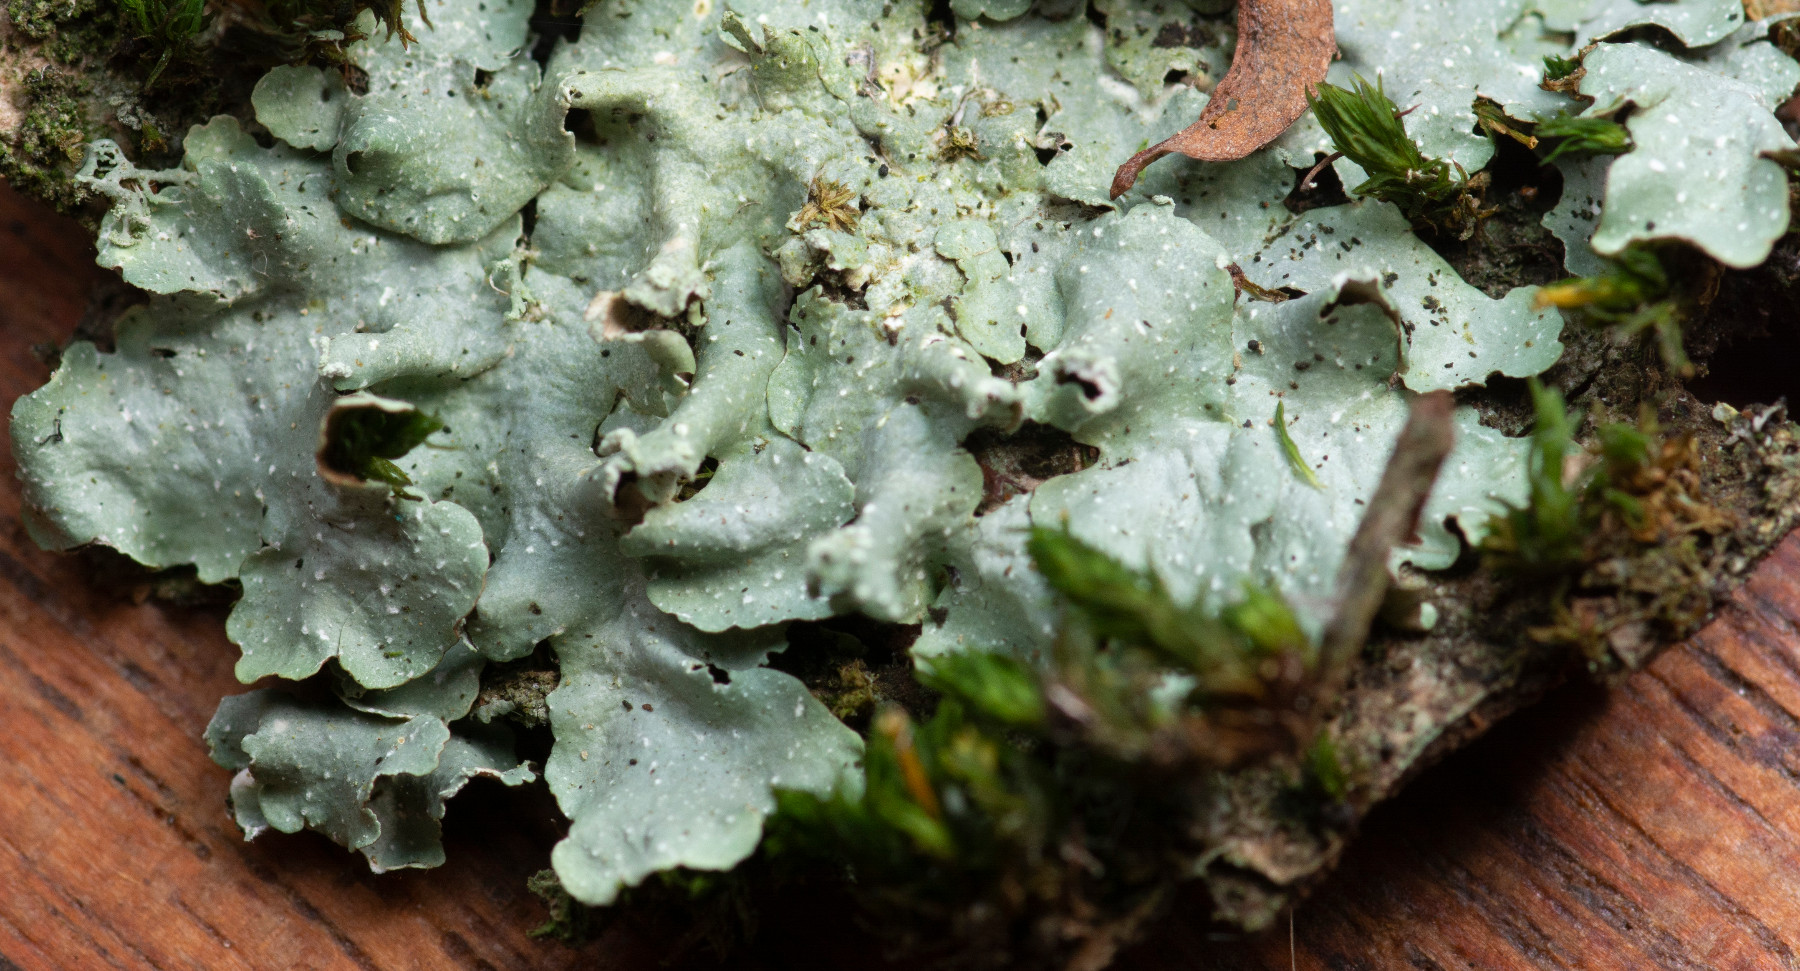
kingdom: Fungi
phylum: Ascomycota
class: Lecanoromycetes
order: Lecanorales
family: Parmeliaceae
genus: Punctelia
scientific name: Punctelia borreri
